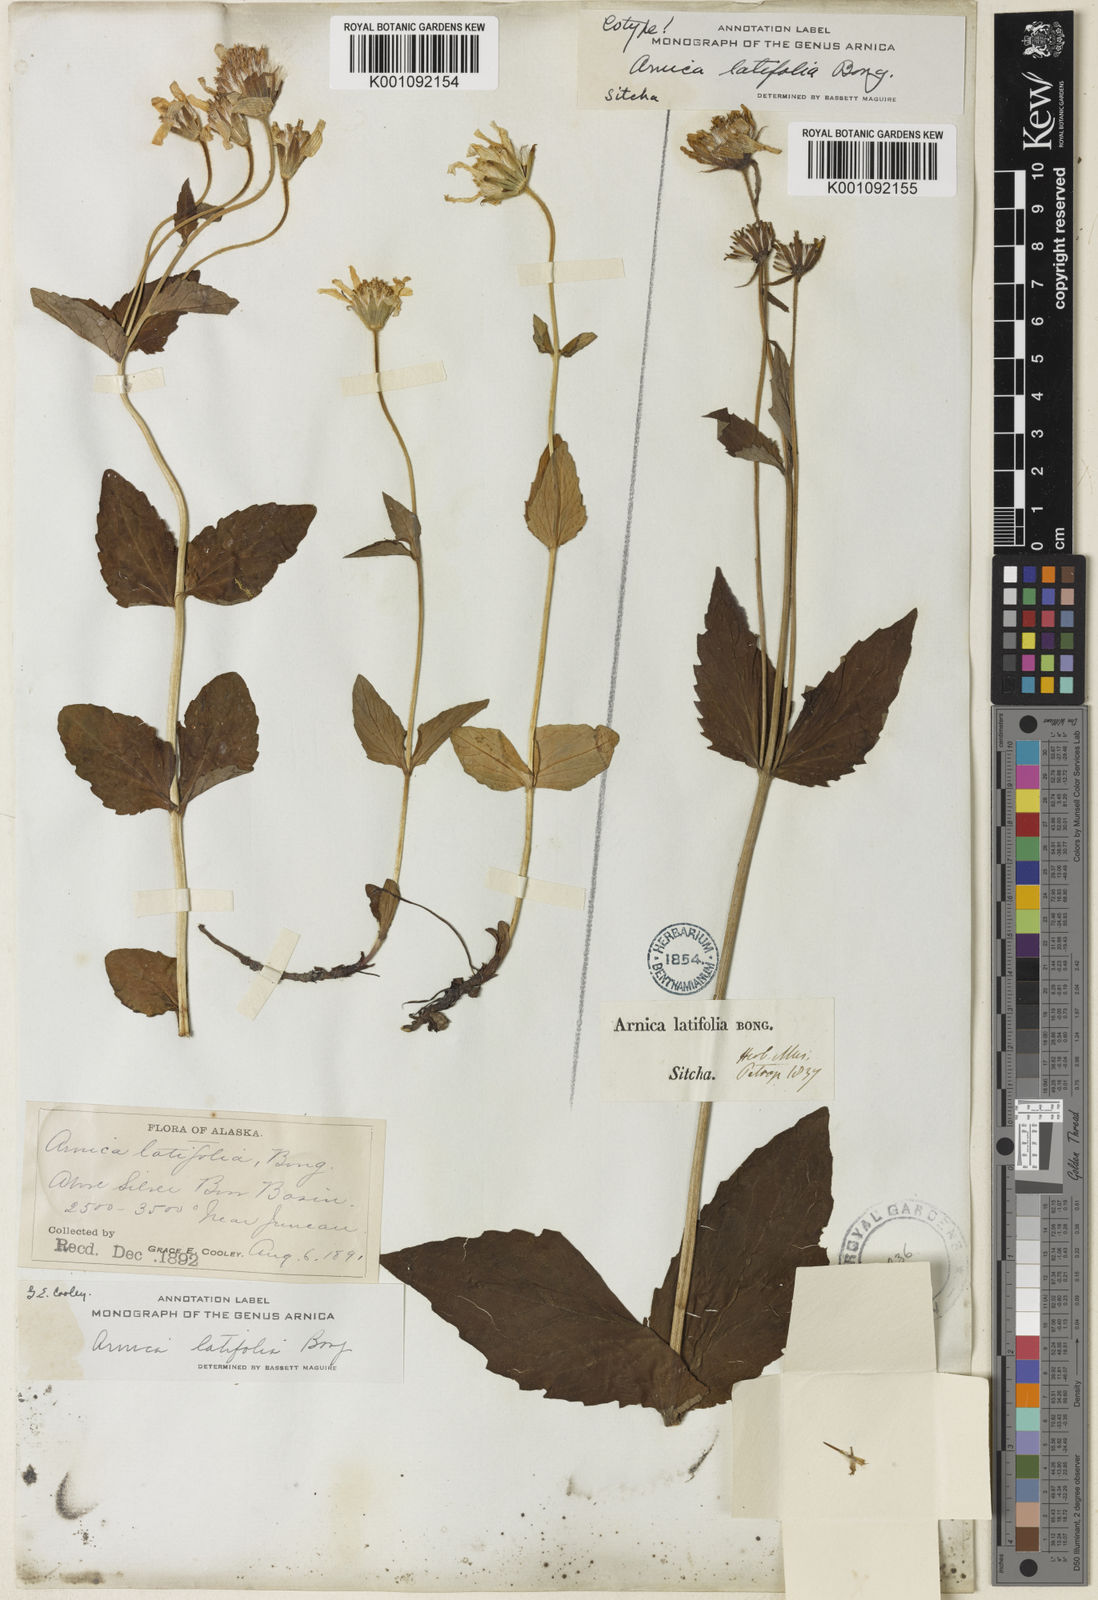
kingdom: Plantae
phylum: Tracheophyta
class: Magnoliopsida
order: Asterales
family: Asteraceae
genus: Arnica
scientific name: Arnica latifolia
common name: Arnica
